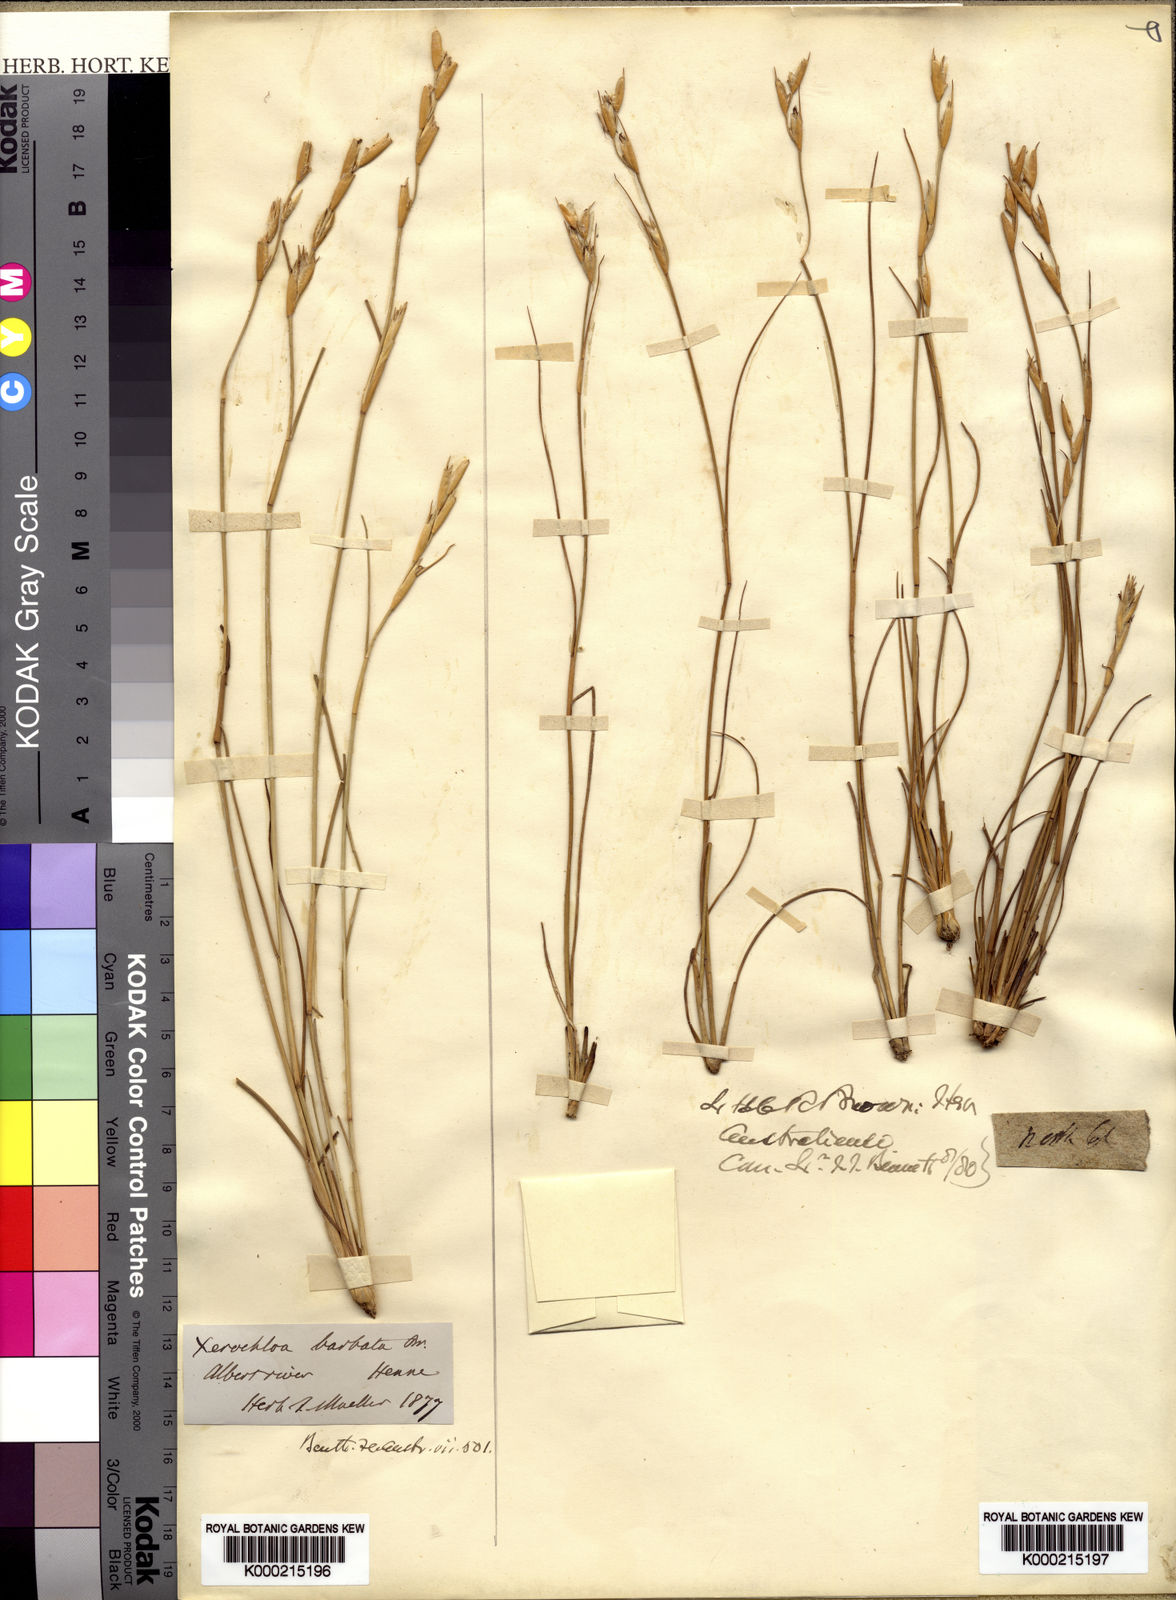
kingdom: Plantae
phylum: Tracheophyta
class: Liliopsida
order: Poales
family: Poaceae
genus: Xerochloa
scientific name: Xerochloa barbata
